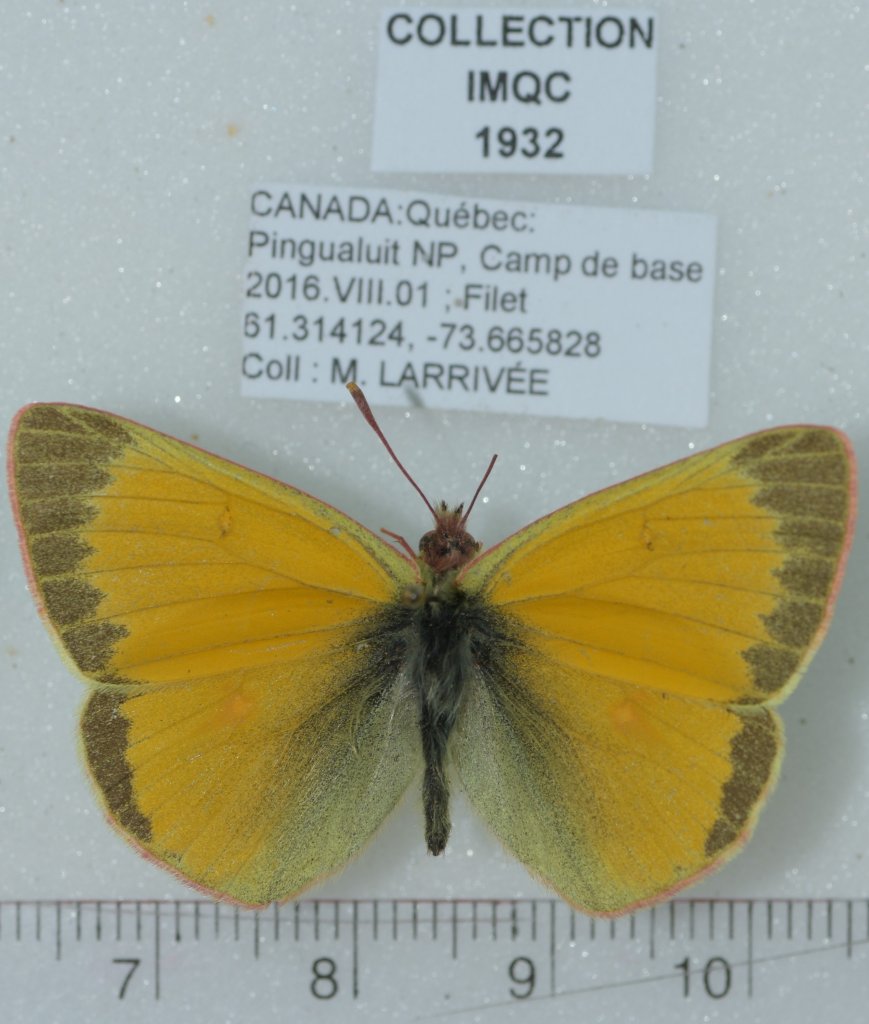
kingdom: Animalia
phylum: Arthropoda
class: Insecta
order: Lepidoptera
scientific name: Lepidoptera
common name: Butterflies
